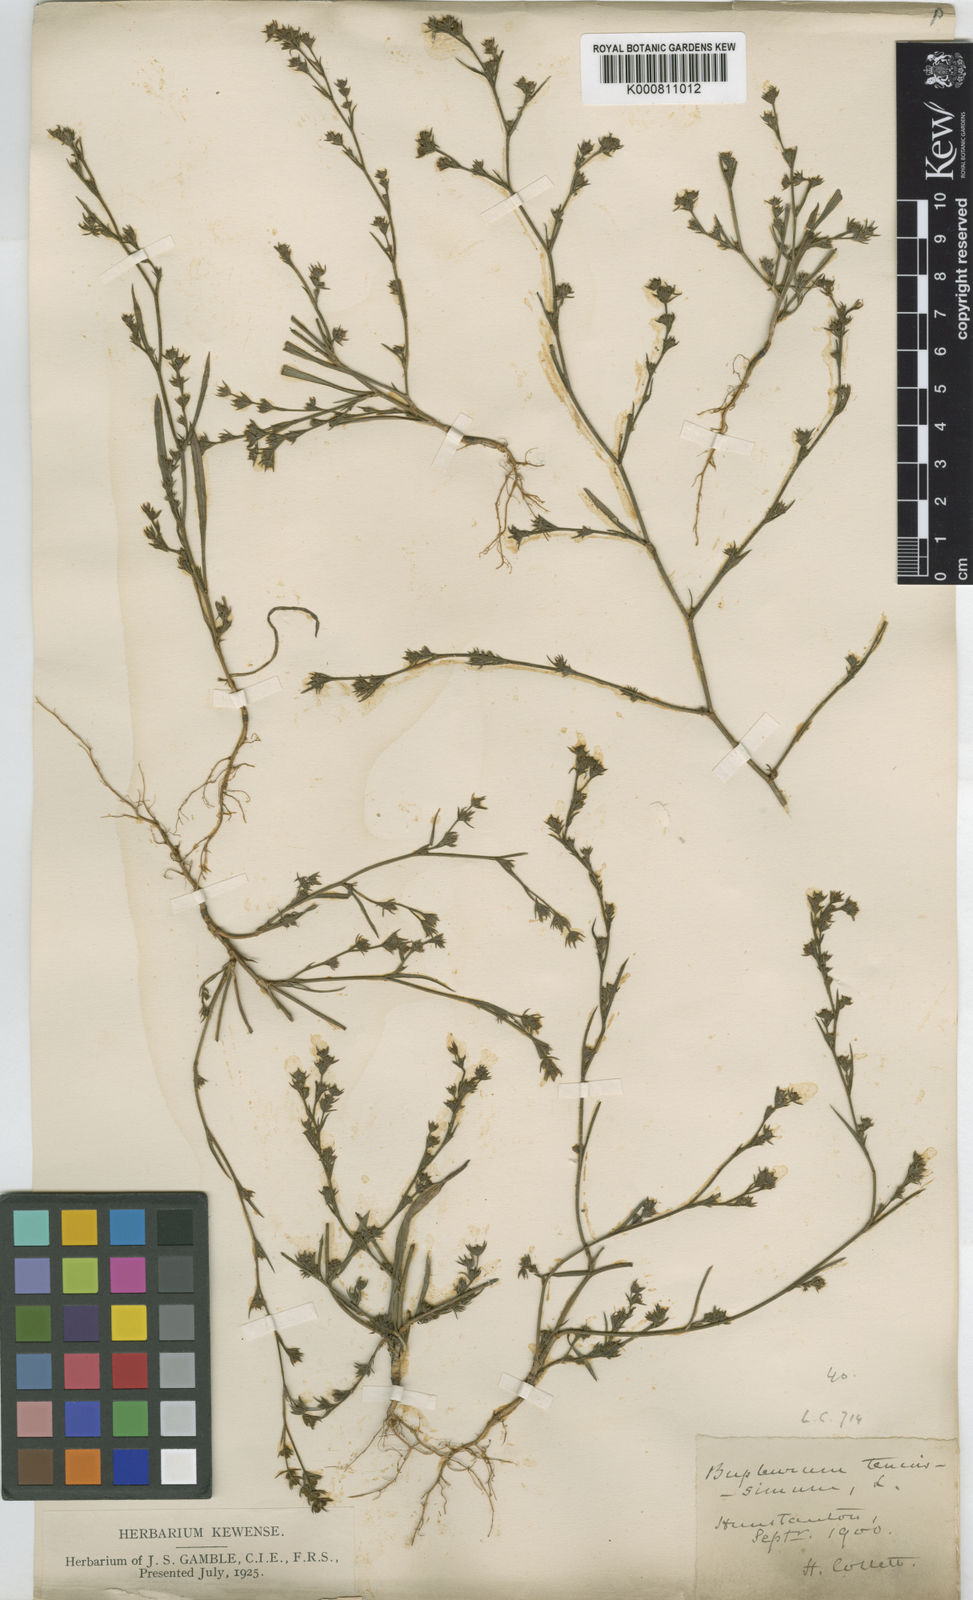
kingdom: Plantae
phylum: Tracheophyta
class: Magnoliopsida
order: Apiales
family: Apiaceae
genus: Bupleurum
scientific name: Bupleurum tenuissimum
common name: Slender hare's-ear
